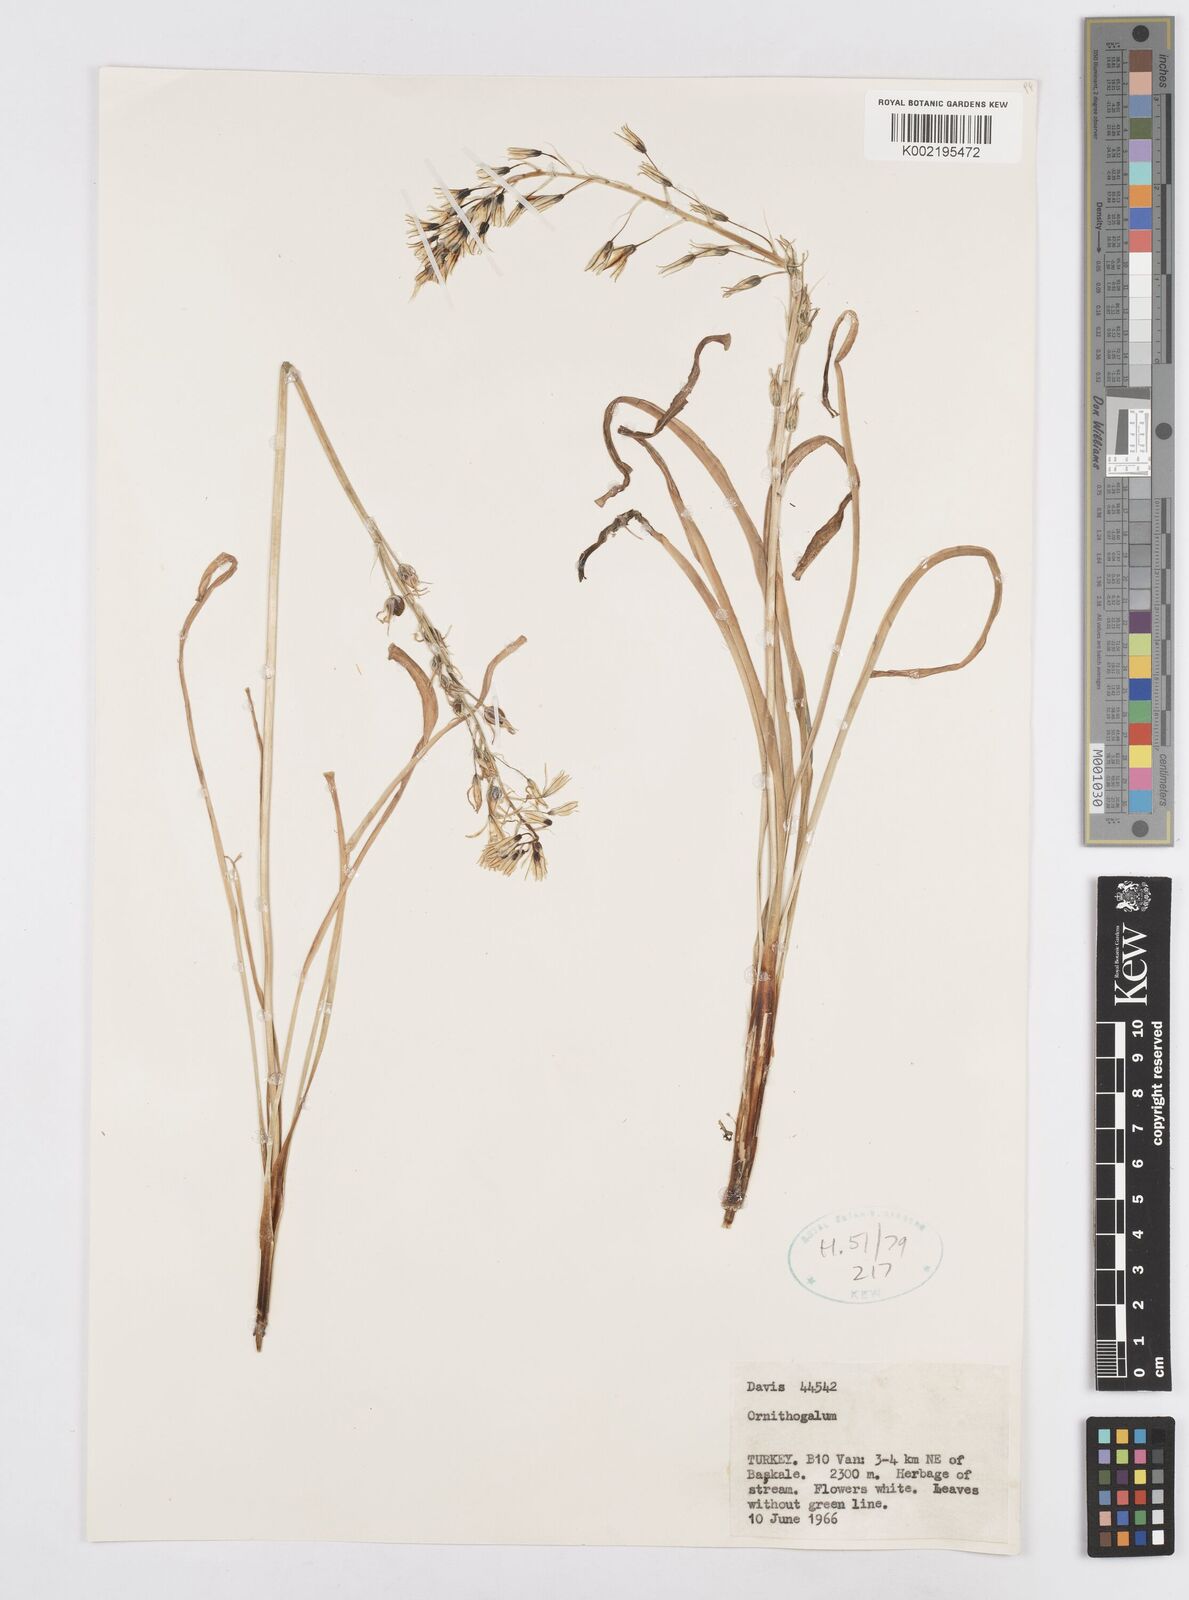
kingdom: Plantae
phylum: Tracheophyta
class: Liliopsida
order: Asparagales
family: Asparagaceae
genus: Ornithogalum
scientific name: Ornithogalum
